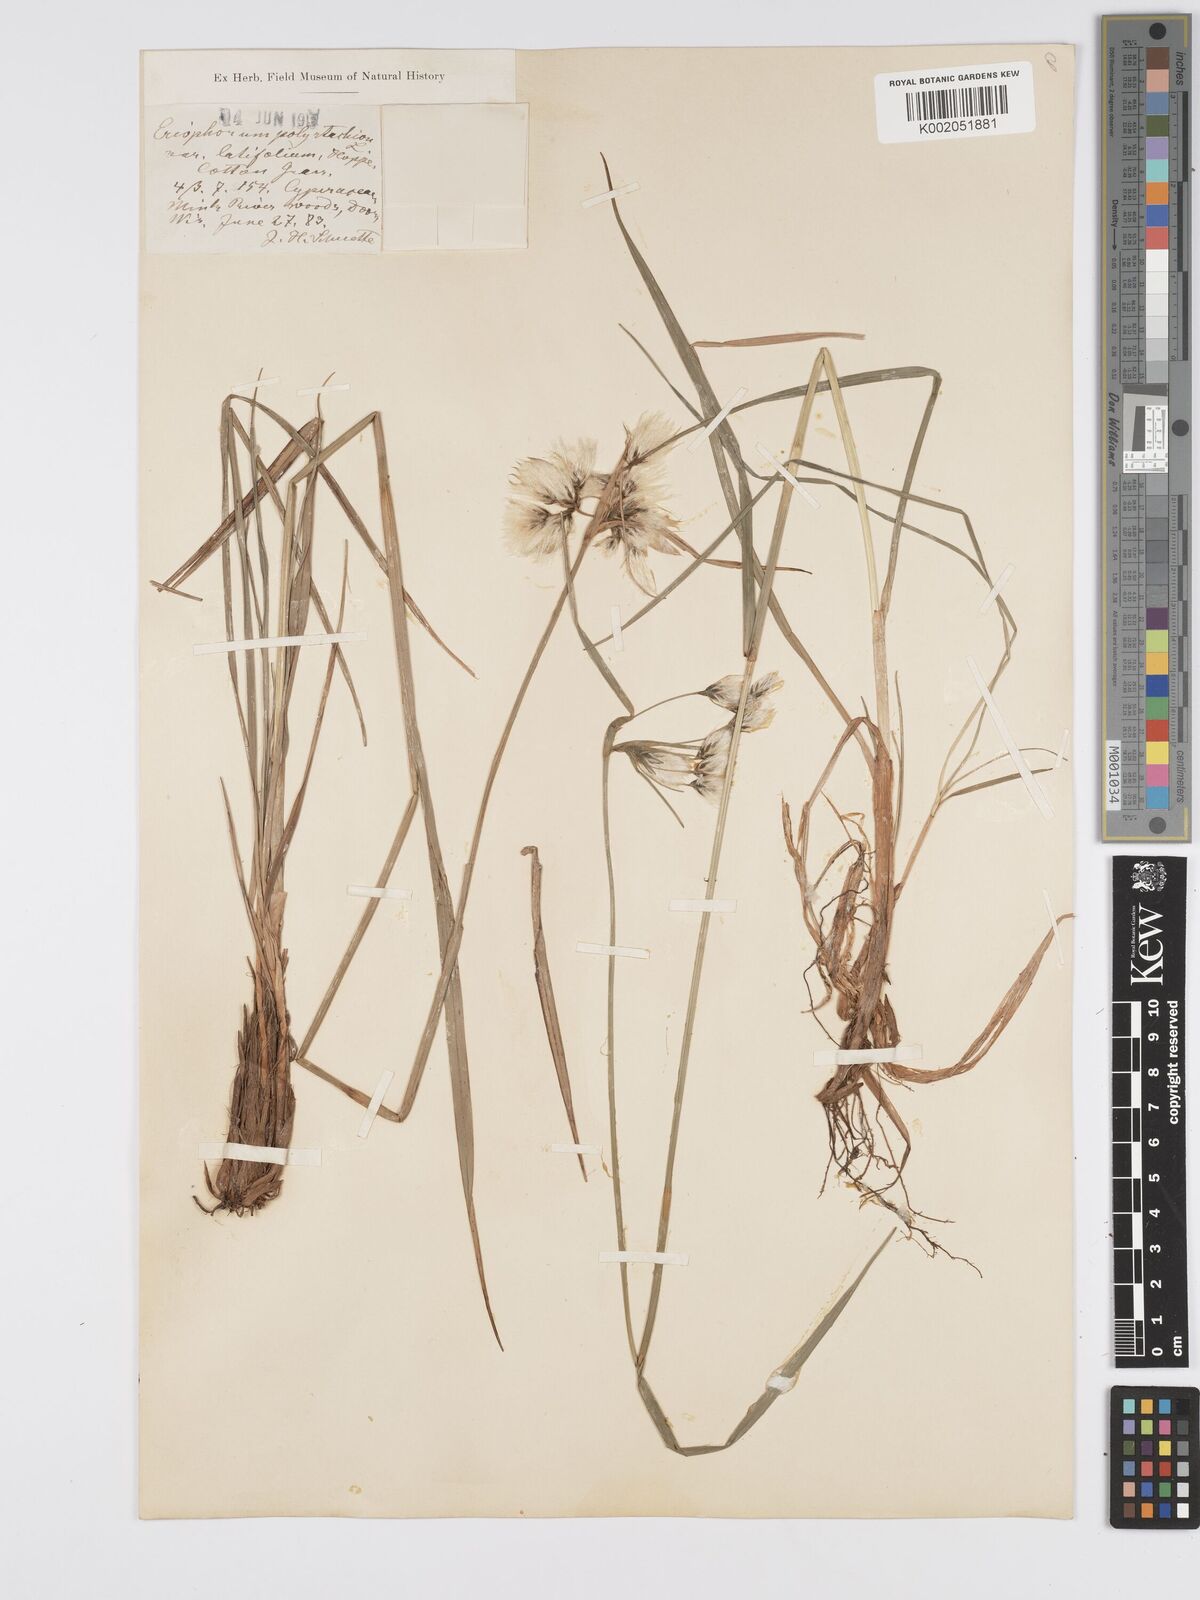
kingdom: Plantae
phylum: Tracheophyta
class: Liliopsida
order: Poales
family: Cyperaceae
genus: Eriophorum
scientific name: Eriophorum latifolium
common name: Broad-leaved cottongrass
